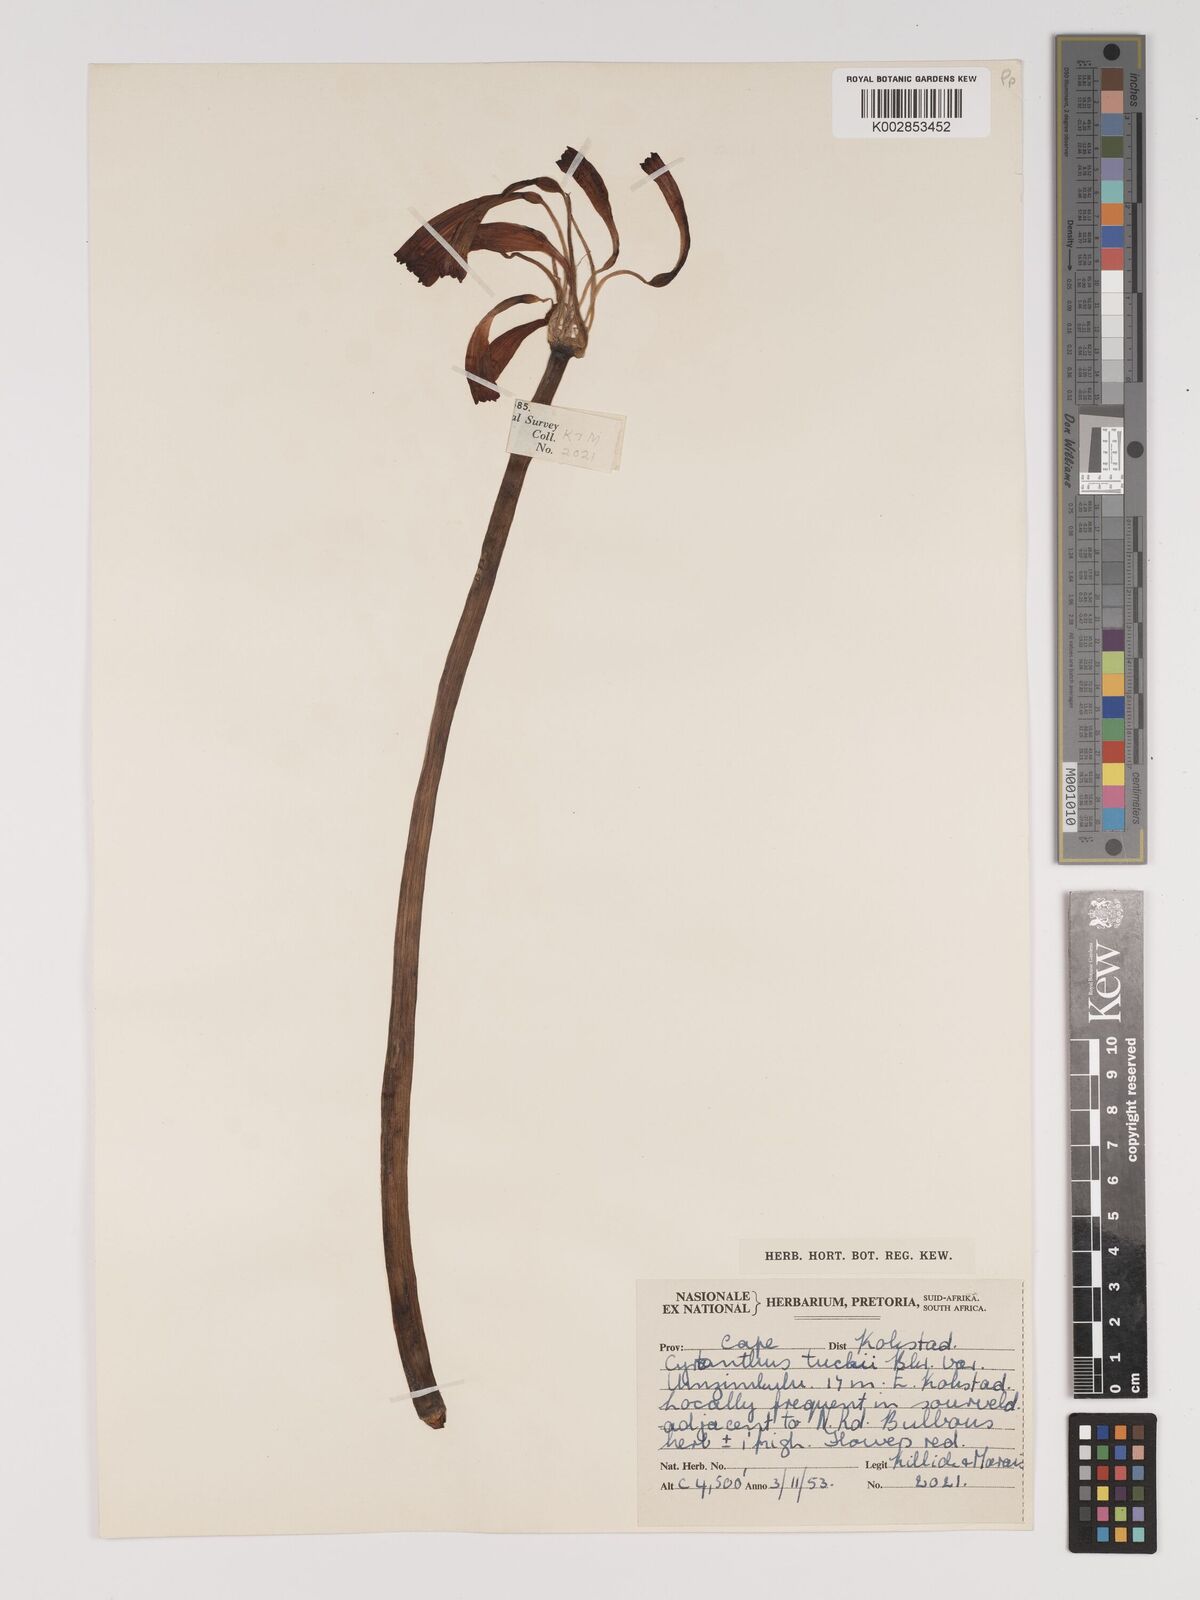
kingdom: Plantae
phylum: Tracheophyta
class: Liliopsida
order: Asparagales
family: Amaryllidaceae
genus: Cyrtanthus
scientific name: Cyrtanthus tuckii
